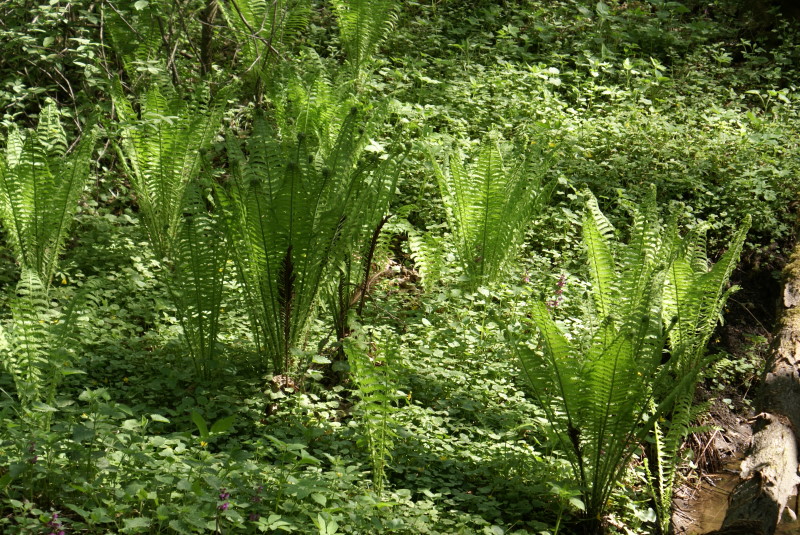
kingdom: Plantae
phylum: Tracheophyta
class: Polypodiopsida
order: Polypodiales
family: Onocleaceae
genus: Matteuccia
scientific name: Matteuccia struthiopteris
